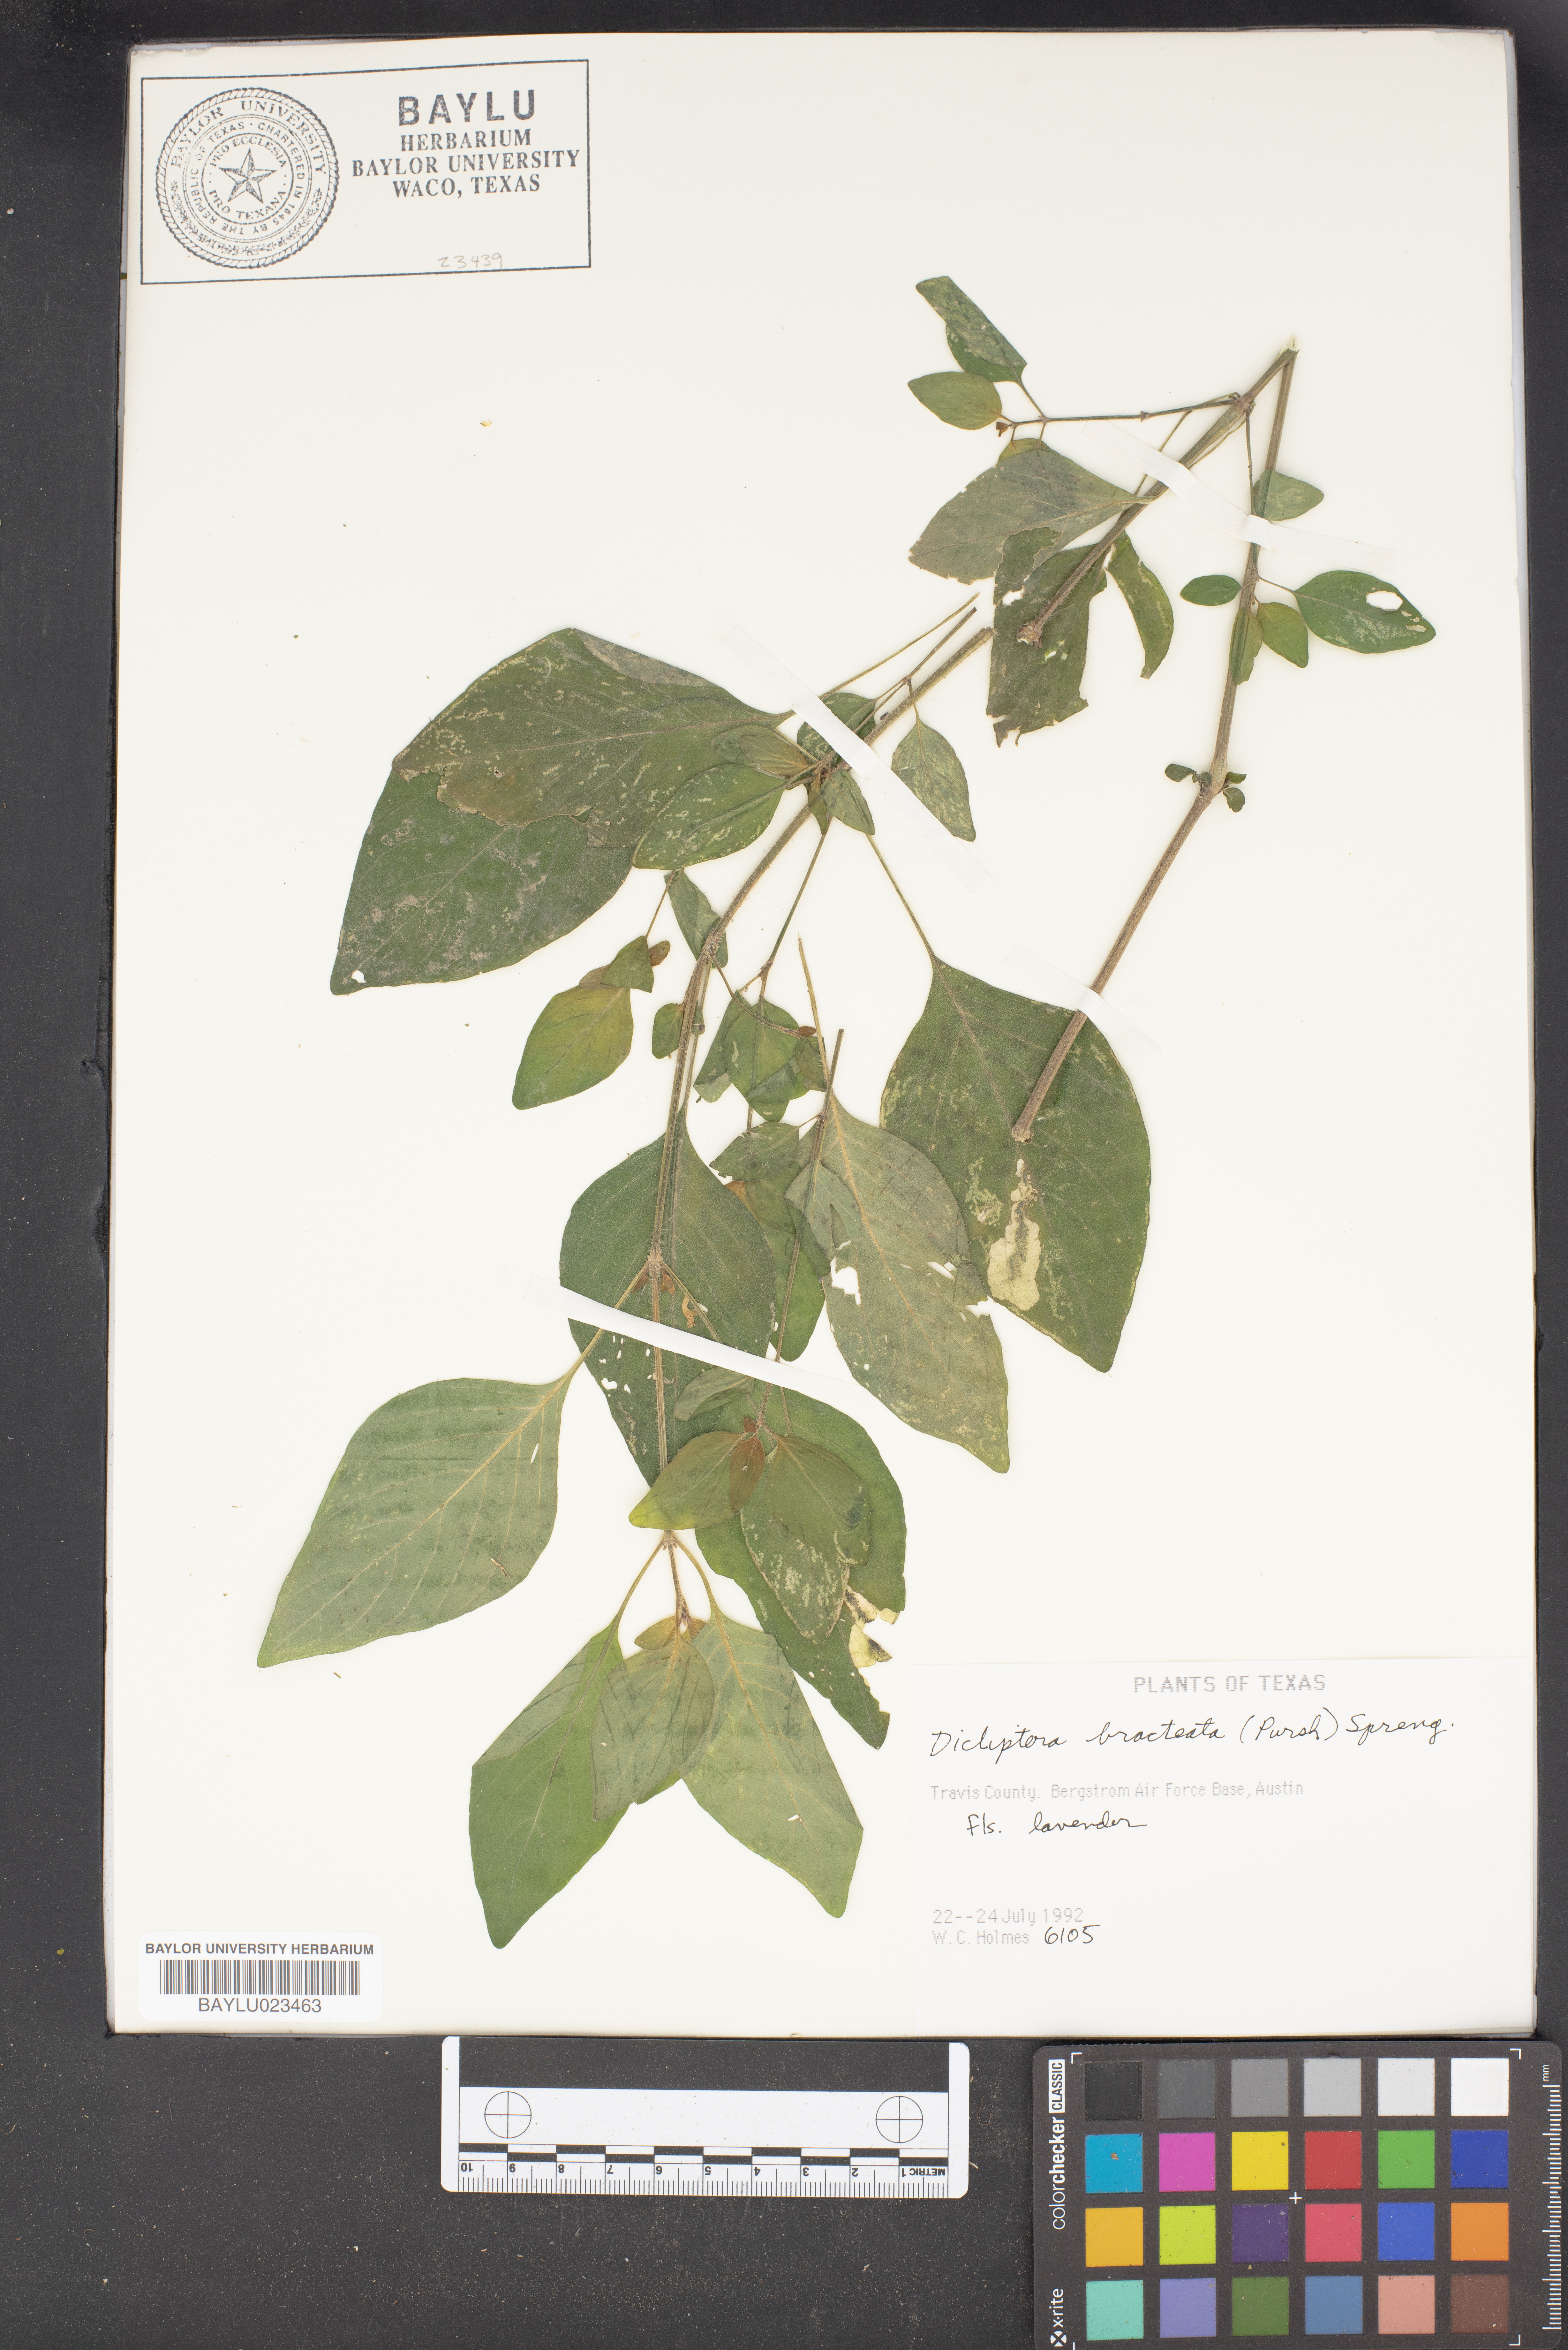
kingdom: Plantae
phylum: Tracheophyta
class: Magnoliopsida
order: Lamiales
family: Acanthaceae
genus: Dicliptera
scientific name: Dicliptera brachiata
